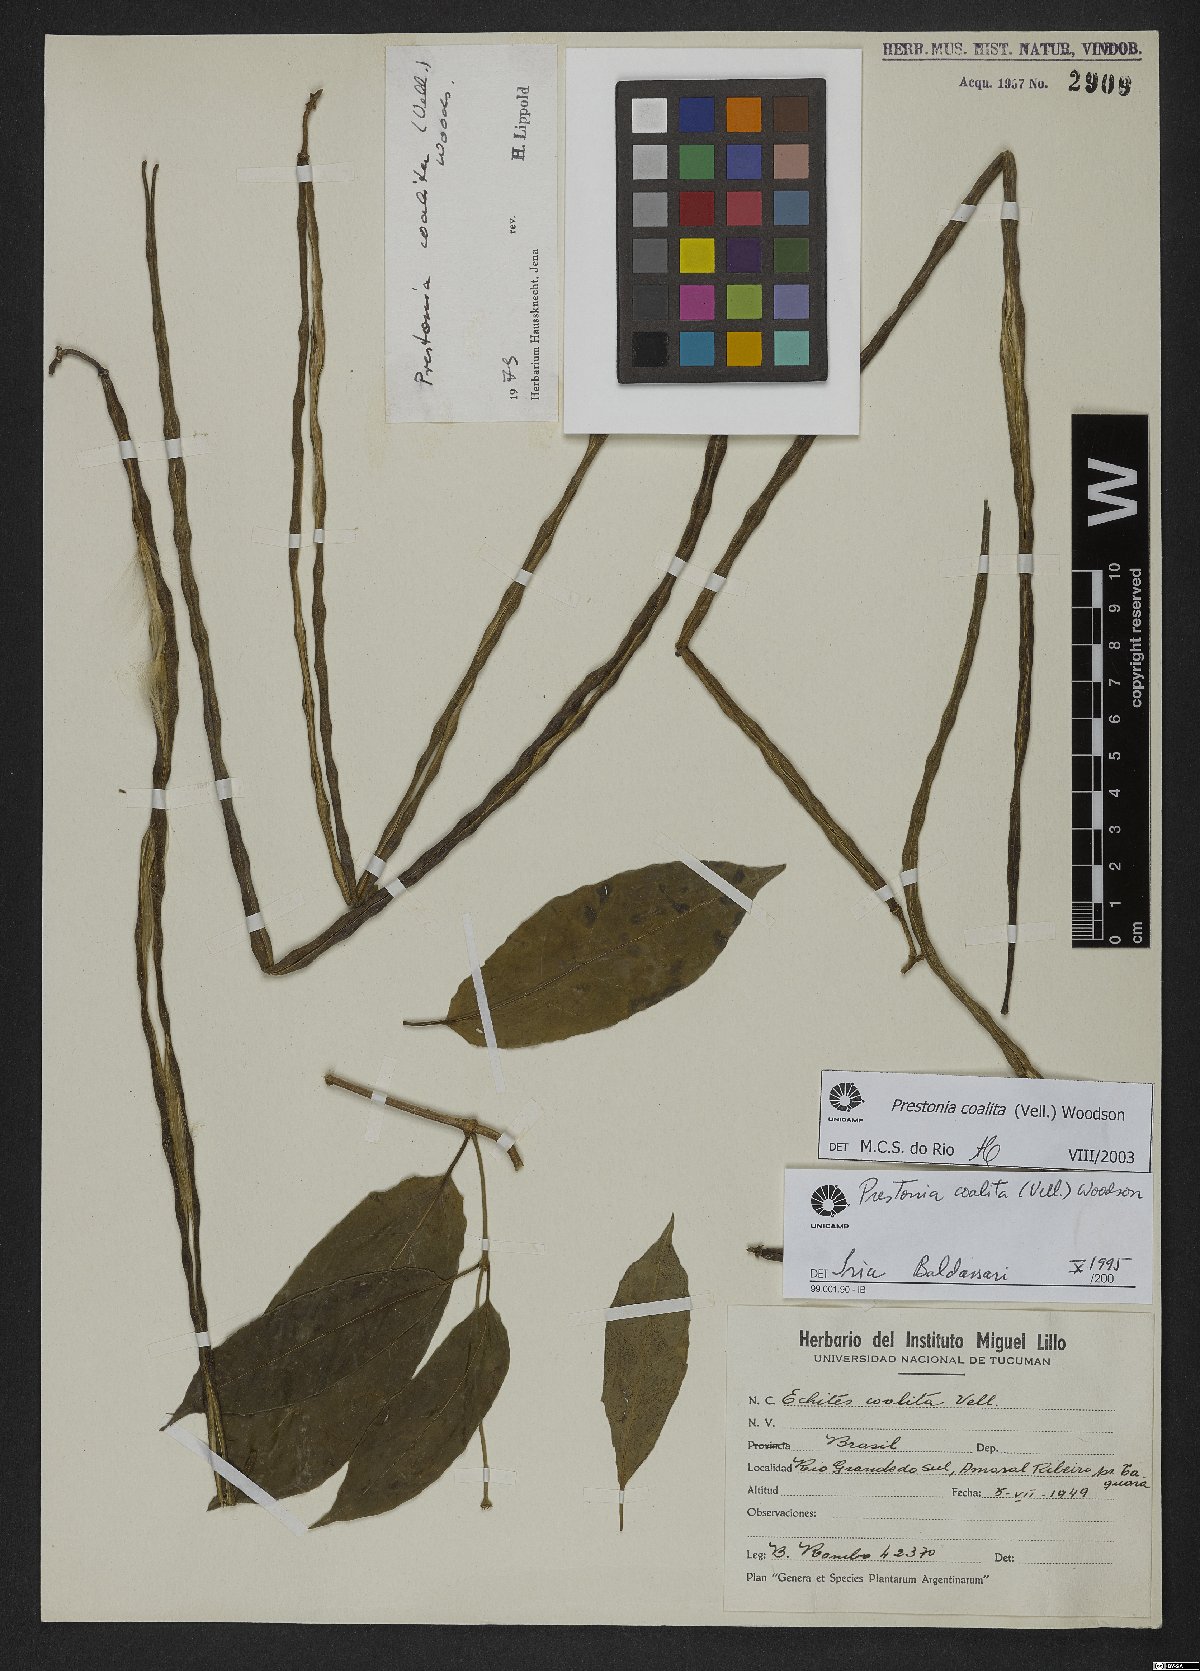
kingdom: Plantae
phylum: Tracheophyta
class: Magnoliopsida
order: Gentianales
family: Apocynaceae
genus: Prestonia
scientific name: Prestonia coalita
